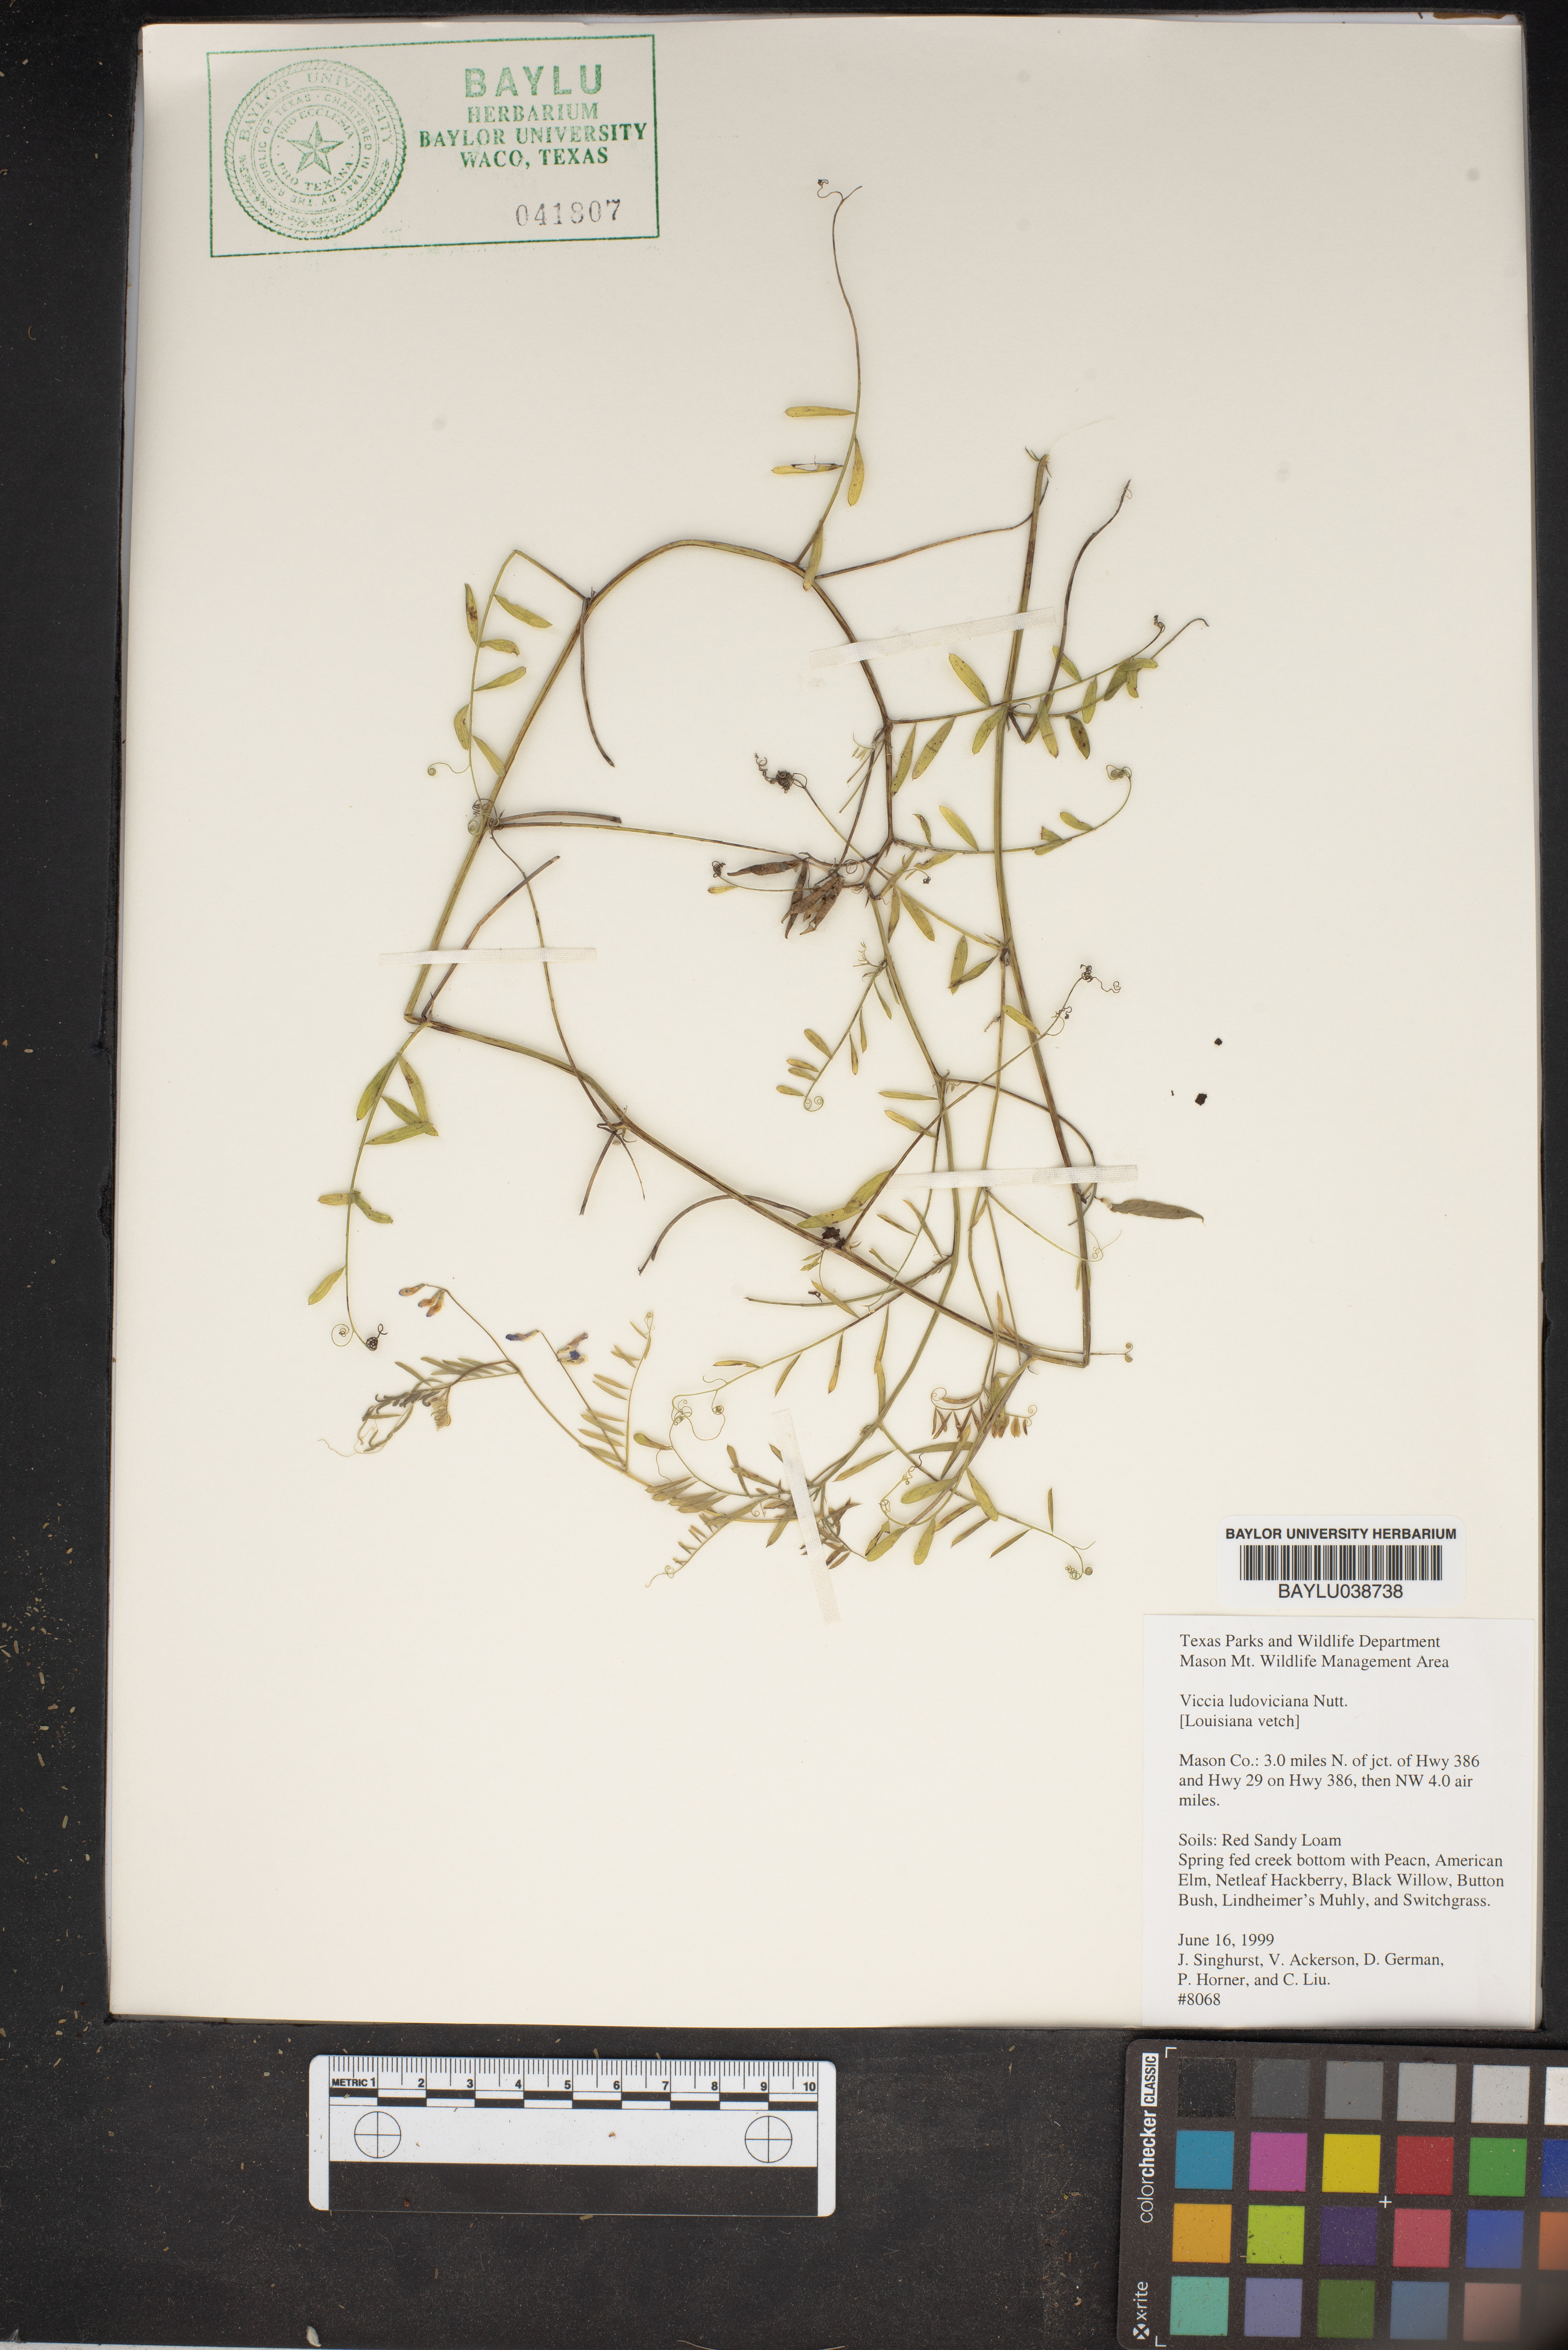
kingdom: Plantae
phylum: Tracheophyta
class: Magnoliopsida
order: Fabales
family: Fabaceae
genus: Vicia
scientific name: Vicia ludoviciana
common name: Louisiana vetch
